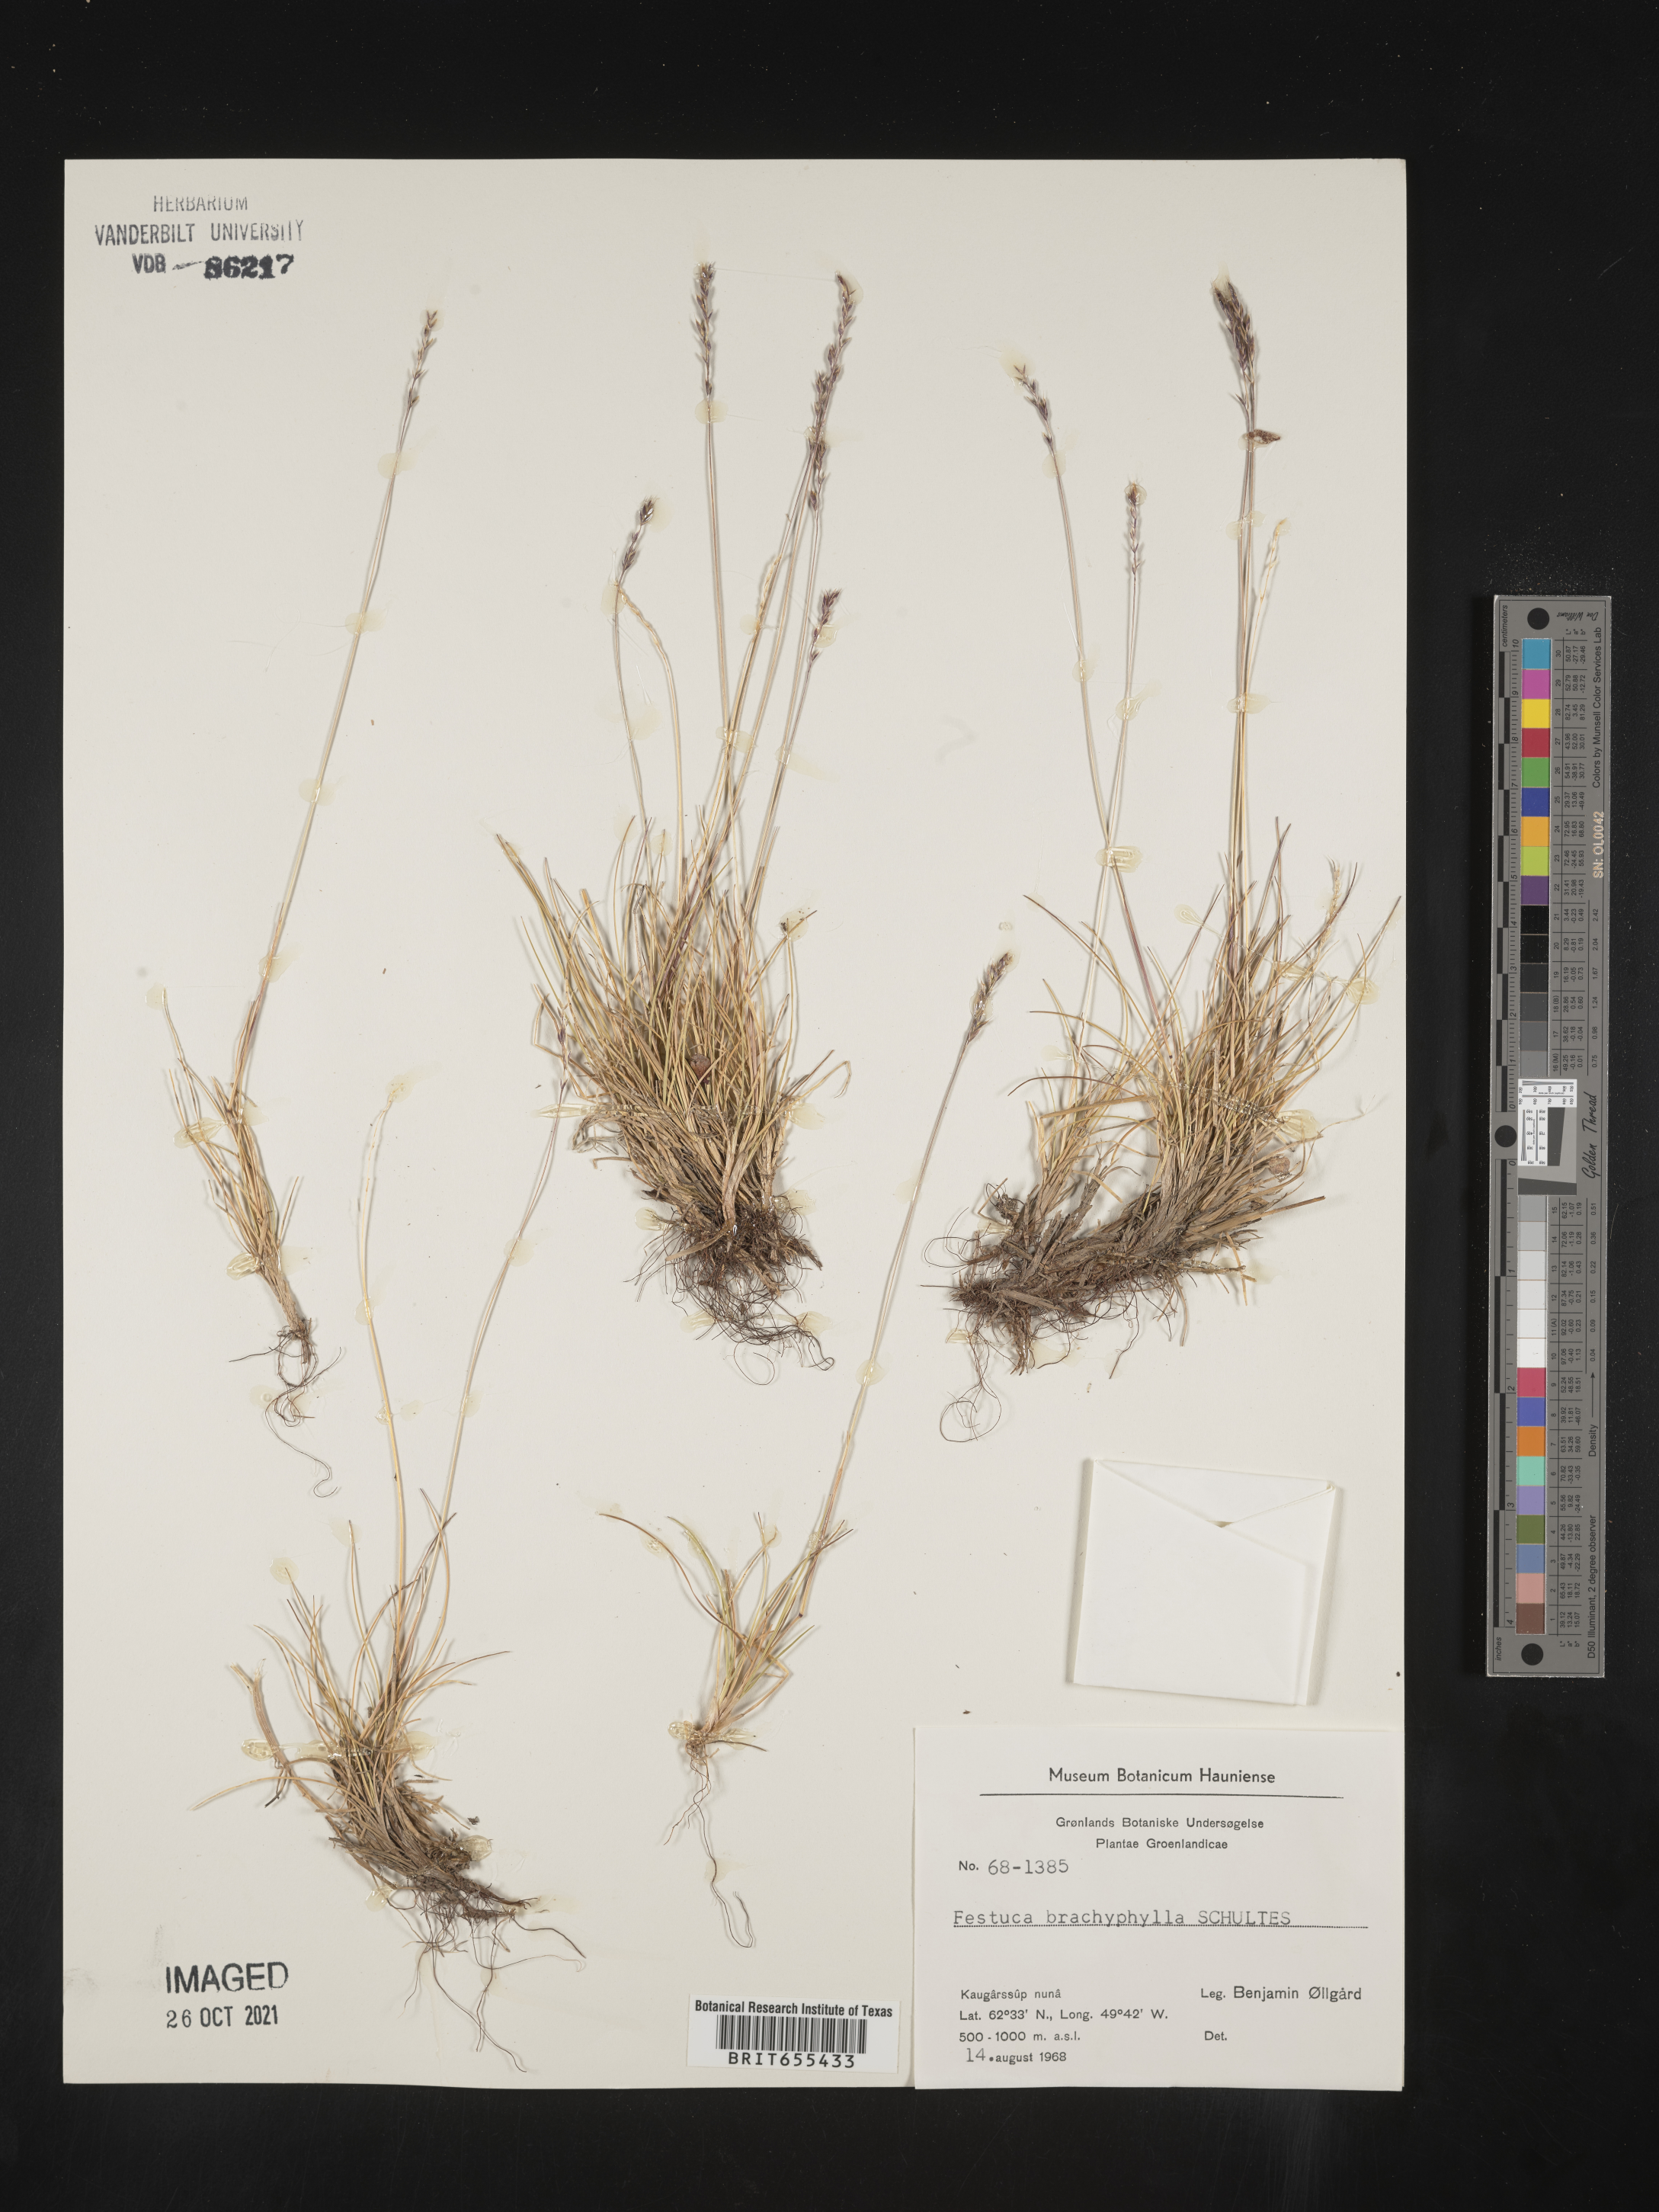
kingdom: Plantae
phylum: Tracheophyta
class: Liliopsida
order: Poales
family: Poaceae
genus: Festuca
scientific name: Festuca
